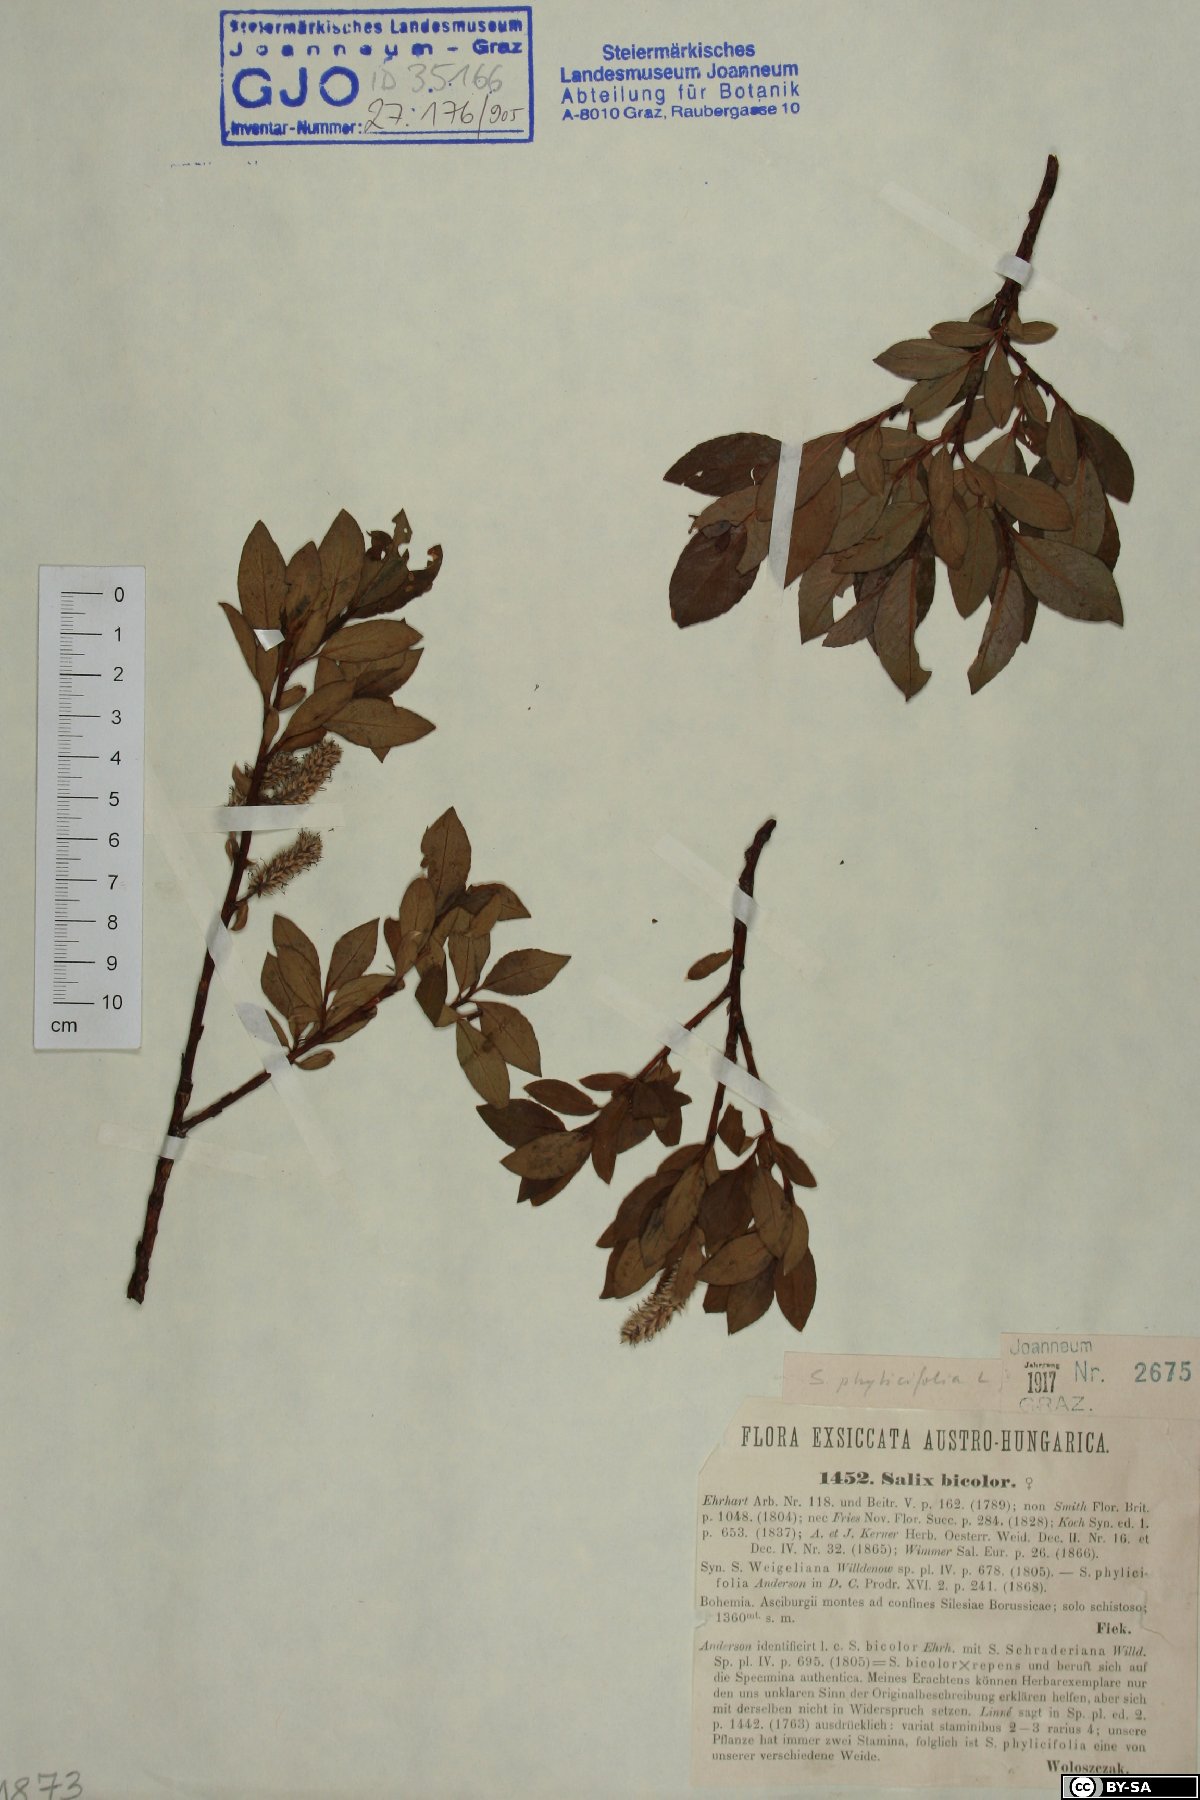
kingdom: Plantae
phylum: Tracheophyta
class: Magnoliopsida
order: Malpighiales
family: Salicaceae
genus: Salix
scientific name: Salix phylicifolia
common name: Tea-leaved willow
